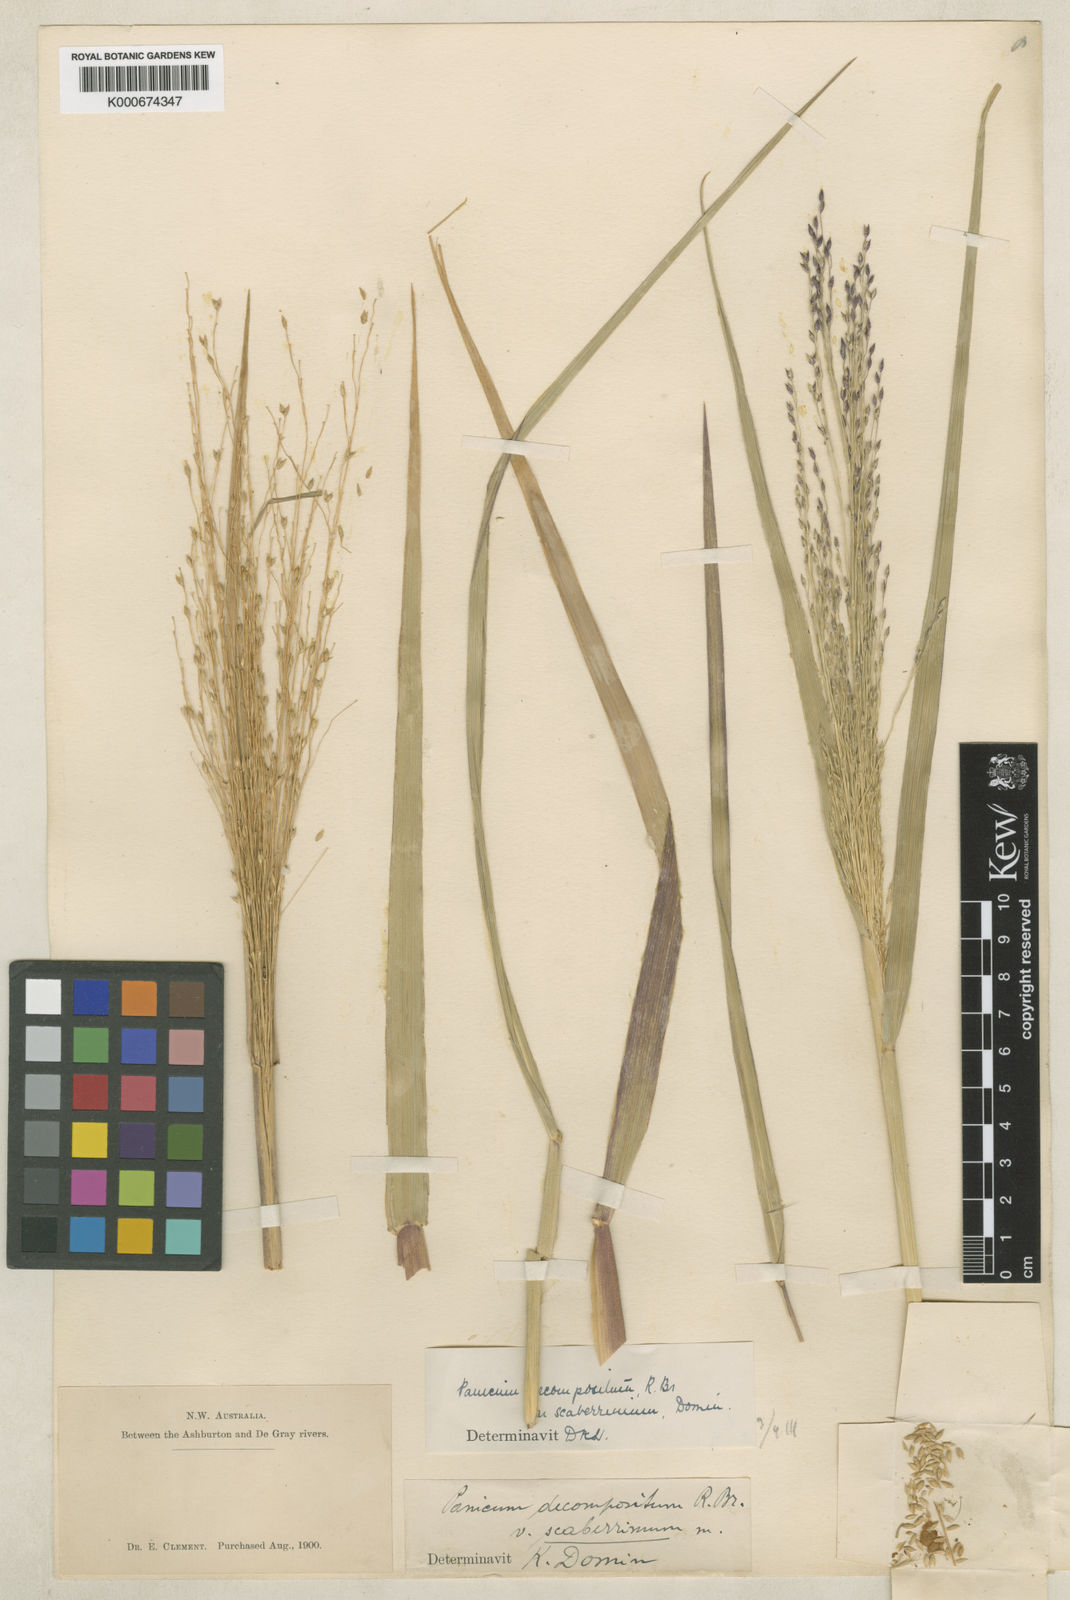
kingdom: Plantae
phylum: Tracheophyta
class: Liliopsida
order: Poales
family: Poaceae
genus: Panicum
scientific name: Panicum decompositum
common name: Australian millet
